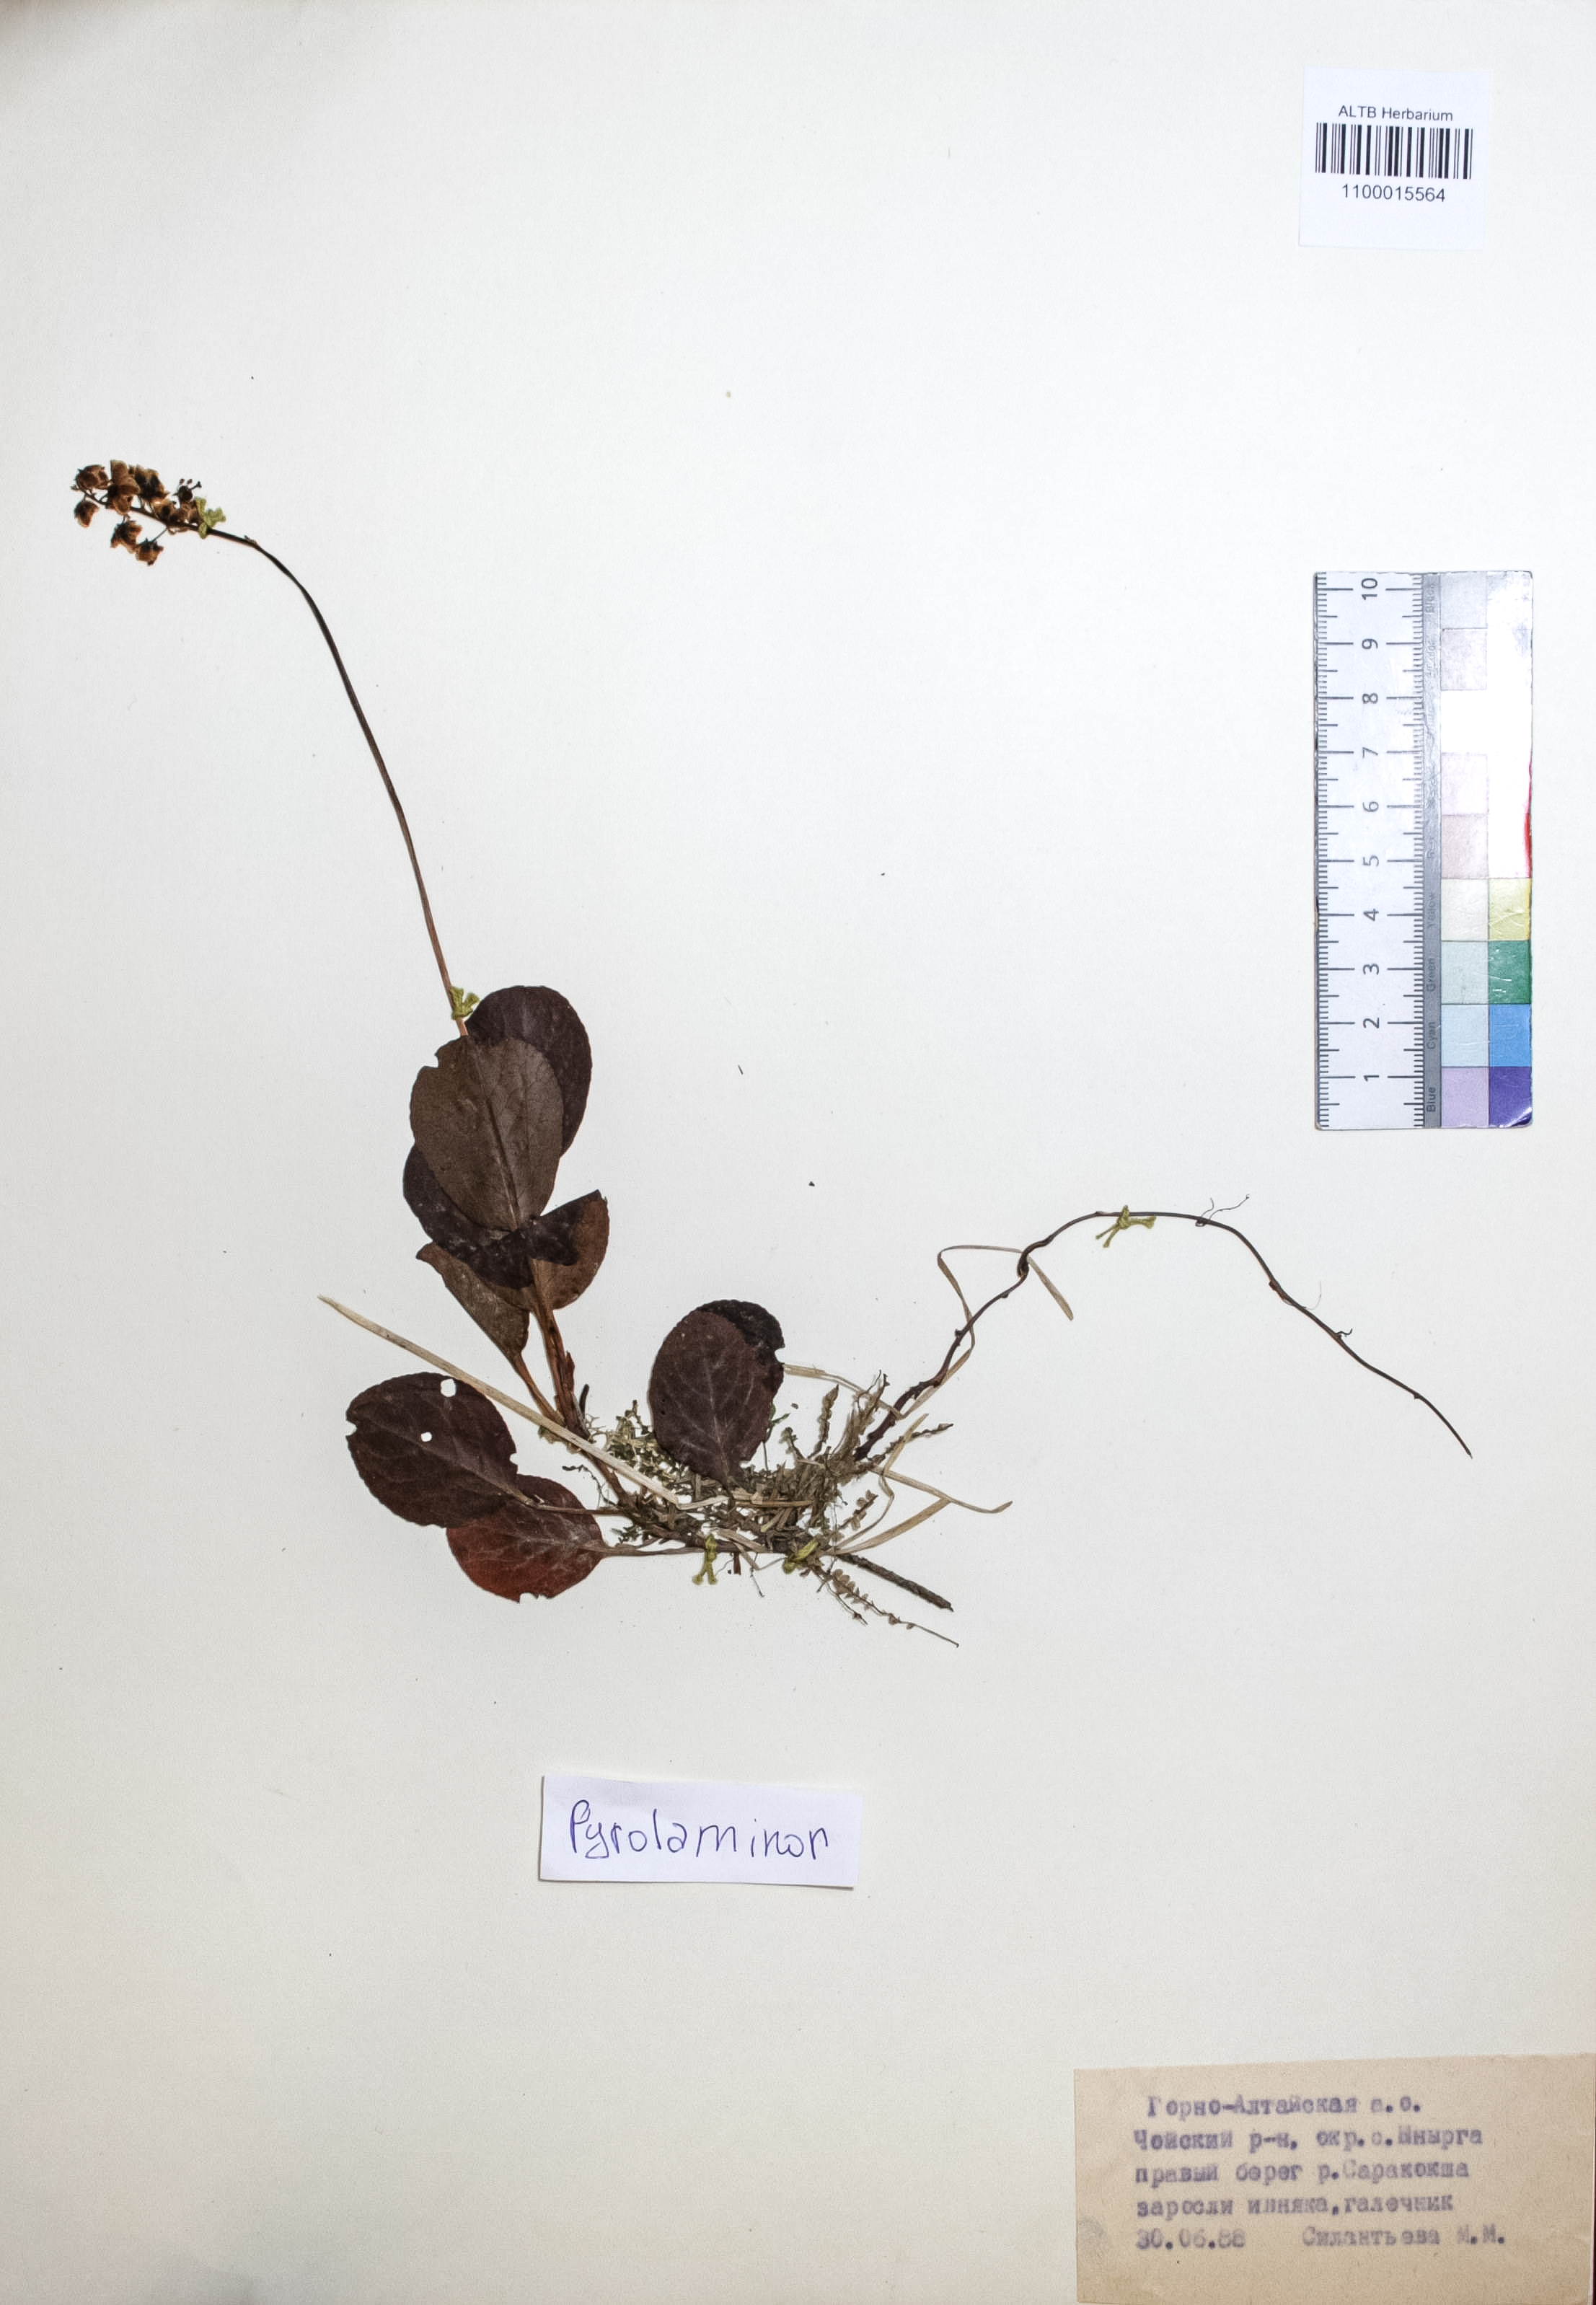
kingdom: Plantae
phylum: Tracheophyta
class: Magnoliopsida
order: Ericales
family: Ericaceae
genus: Pyrola
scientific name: Pyrola minor
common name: Common wintergreen
